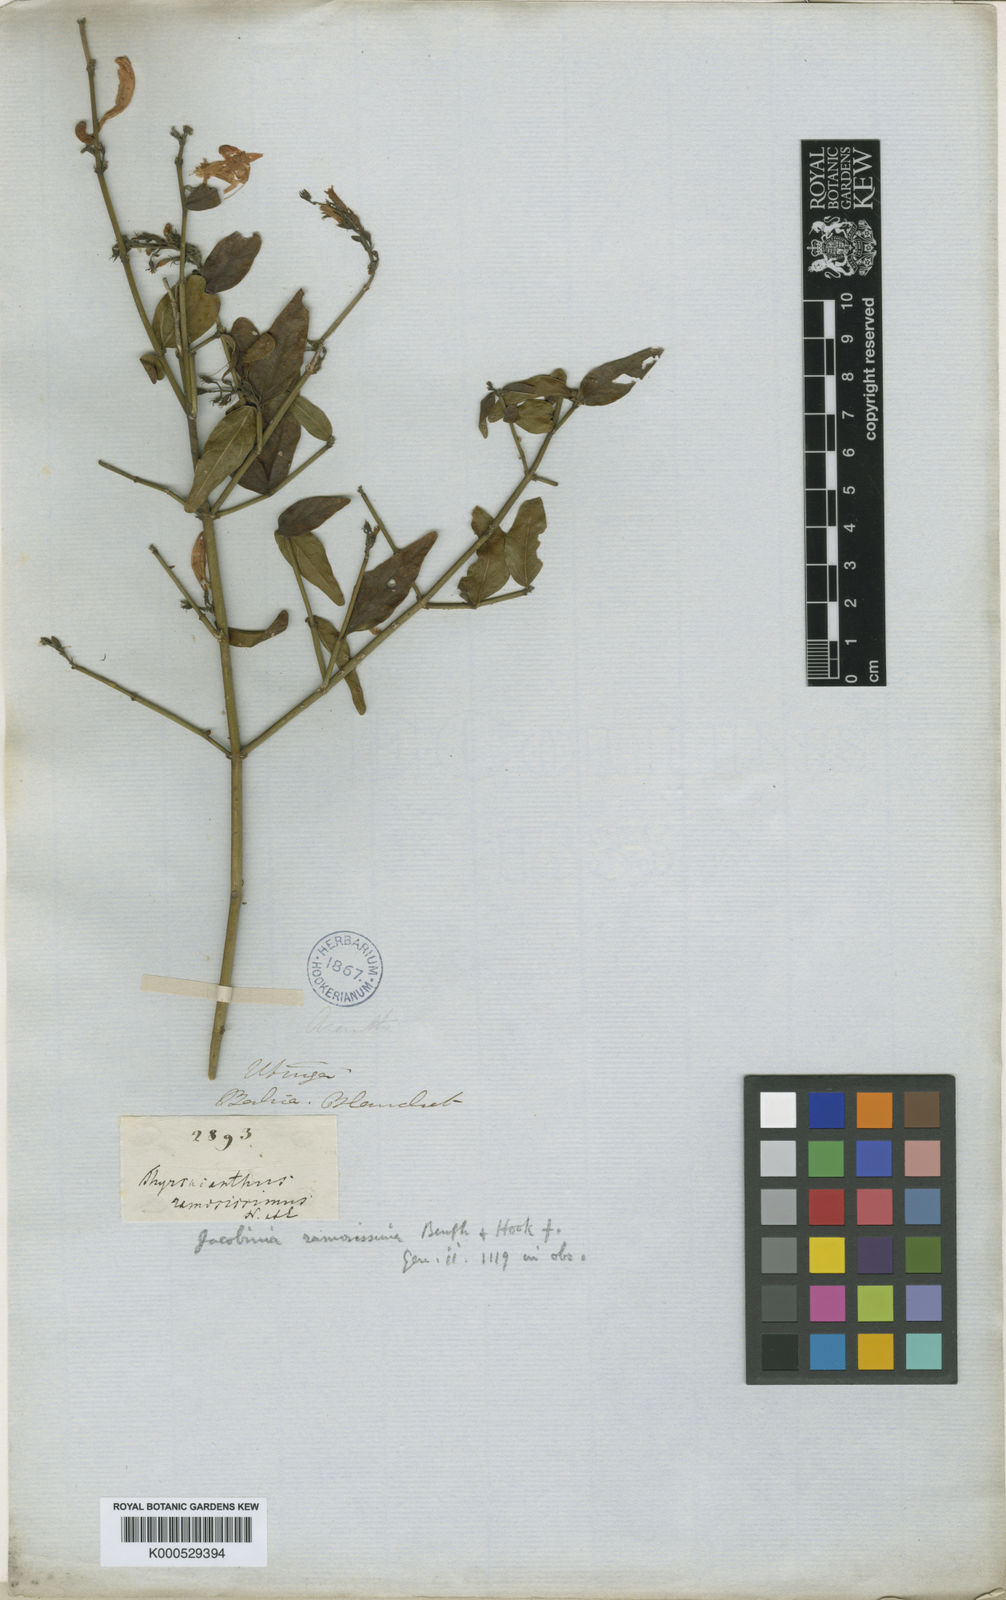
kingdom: Plantae
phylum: Tracheophyta
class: Magnoliopsida
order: Lamiales
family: Acanthaceae
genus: Thyrsacanthus
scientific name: Thyrsacanthus ramosissimus
